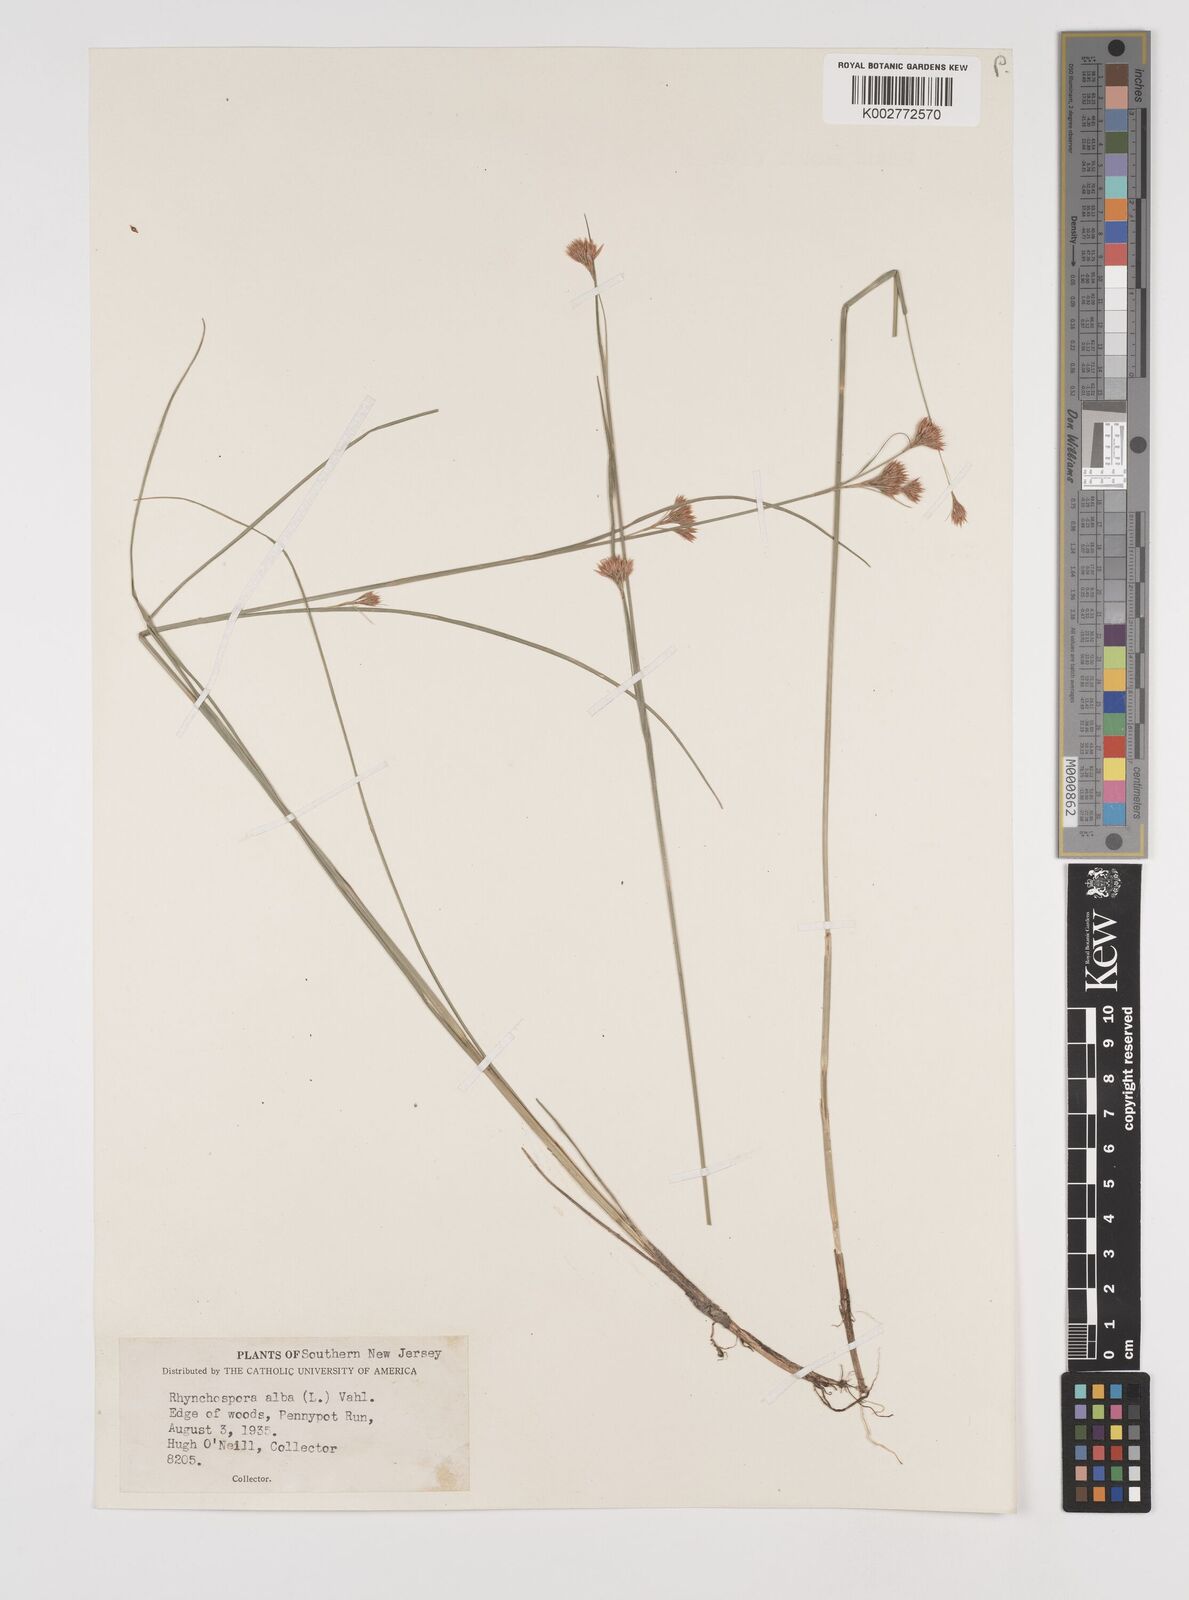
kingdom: Plantae
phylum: Tracheophyta
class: Liliopsida
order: Poales
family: Cyperaceae
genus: Rhynchospora
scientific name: Rhynchospora alba
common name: White beak-sedge
